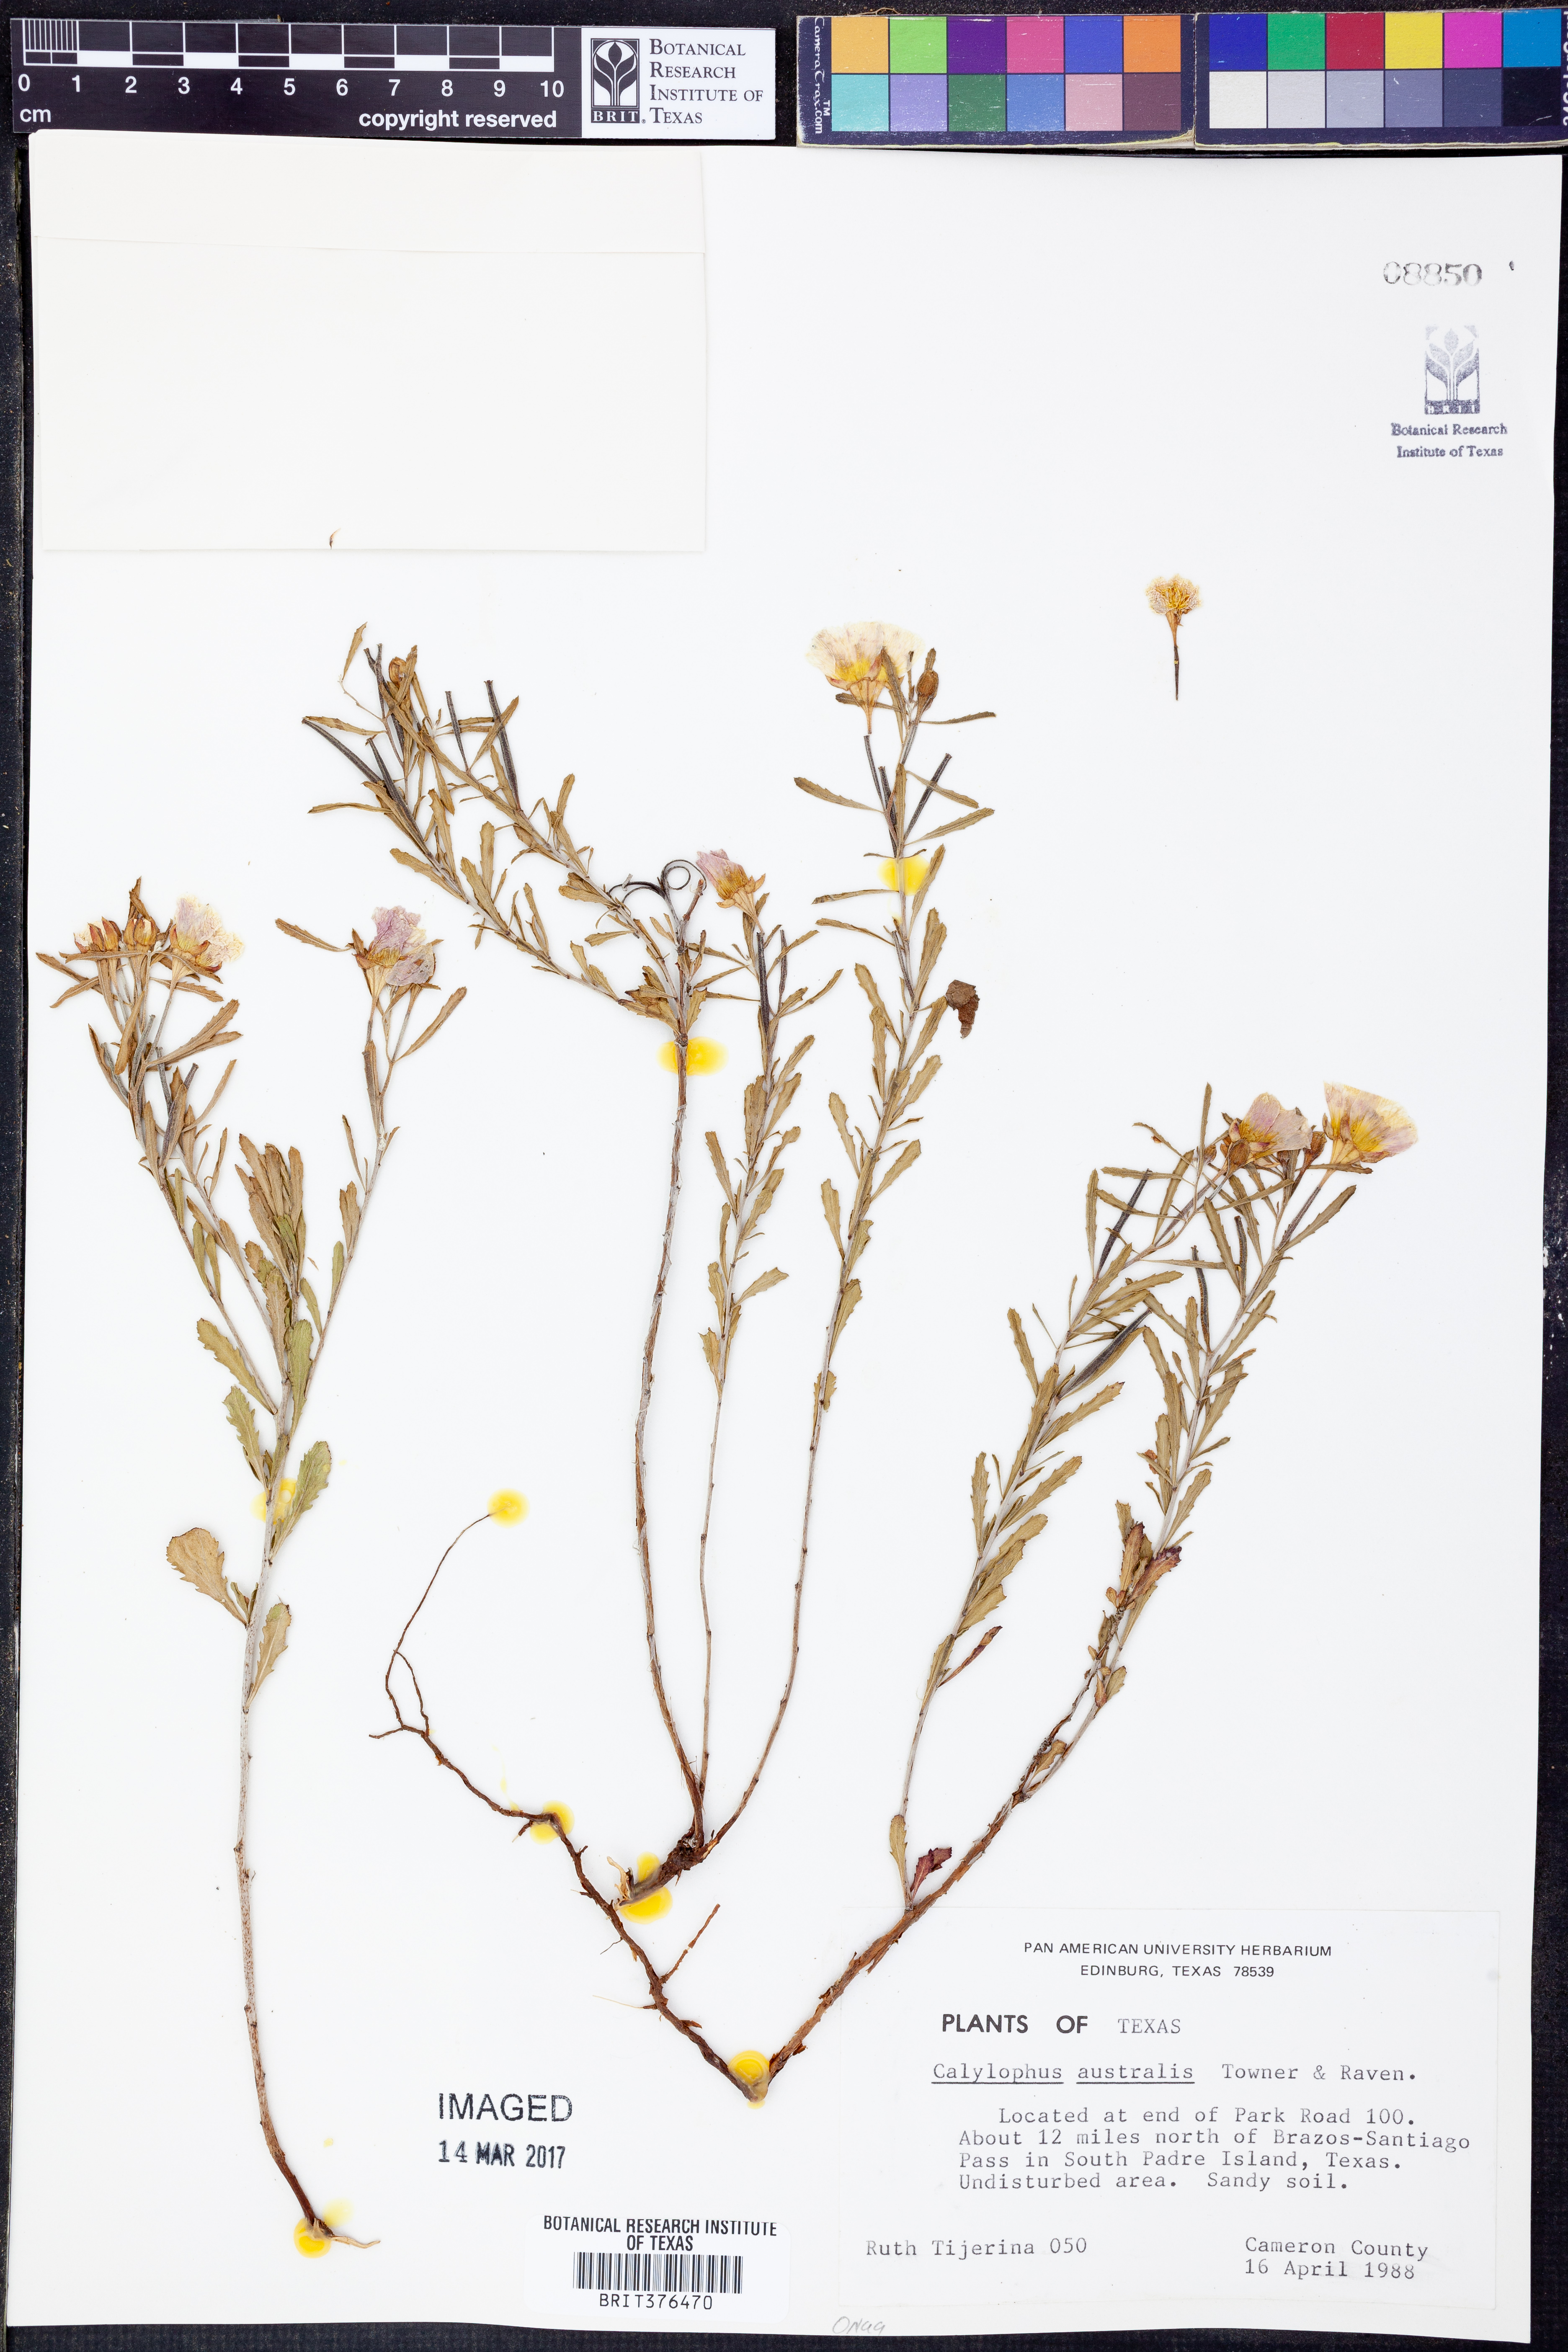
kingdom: Plantae
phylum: Tracheophyta
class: Magnoliopsida
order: Myrtales
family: Onagraceae
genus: Oenothera
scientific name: Oenothera serrulata
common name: Half-shrub calylophus
